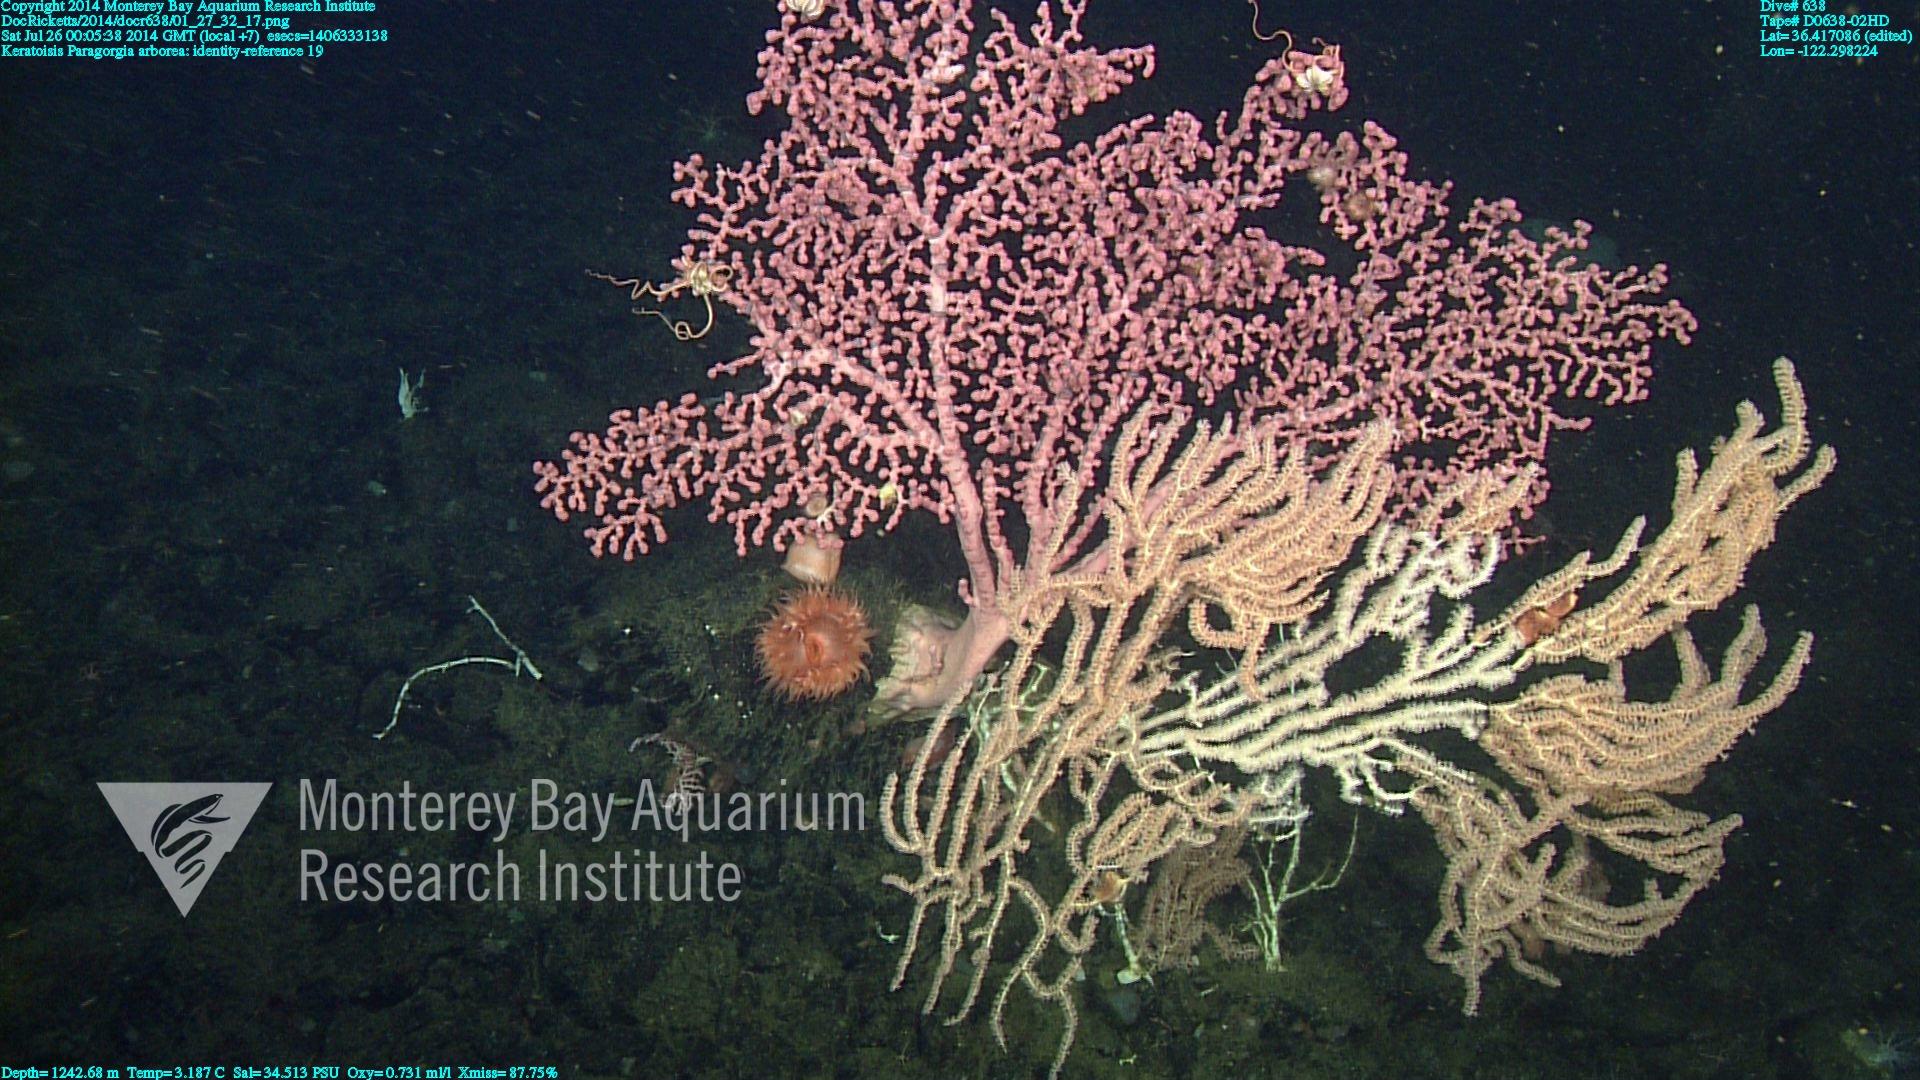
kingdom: Animalia
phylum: Cnidaria
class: Anthozoa
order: Scleralcyonacea
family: Keratoisididae
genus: Keratoisis
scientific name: Keratoisis
